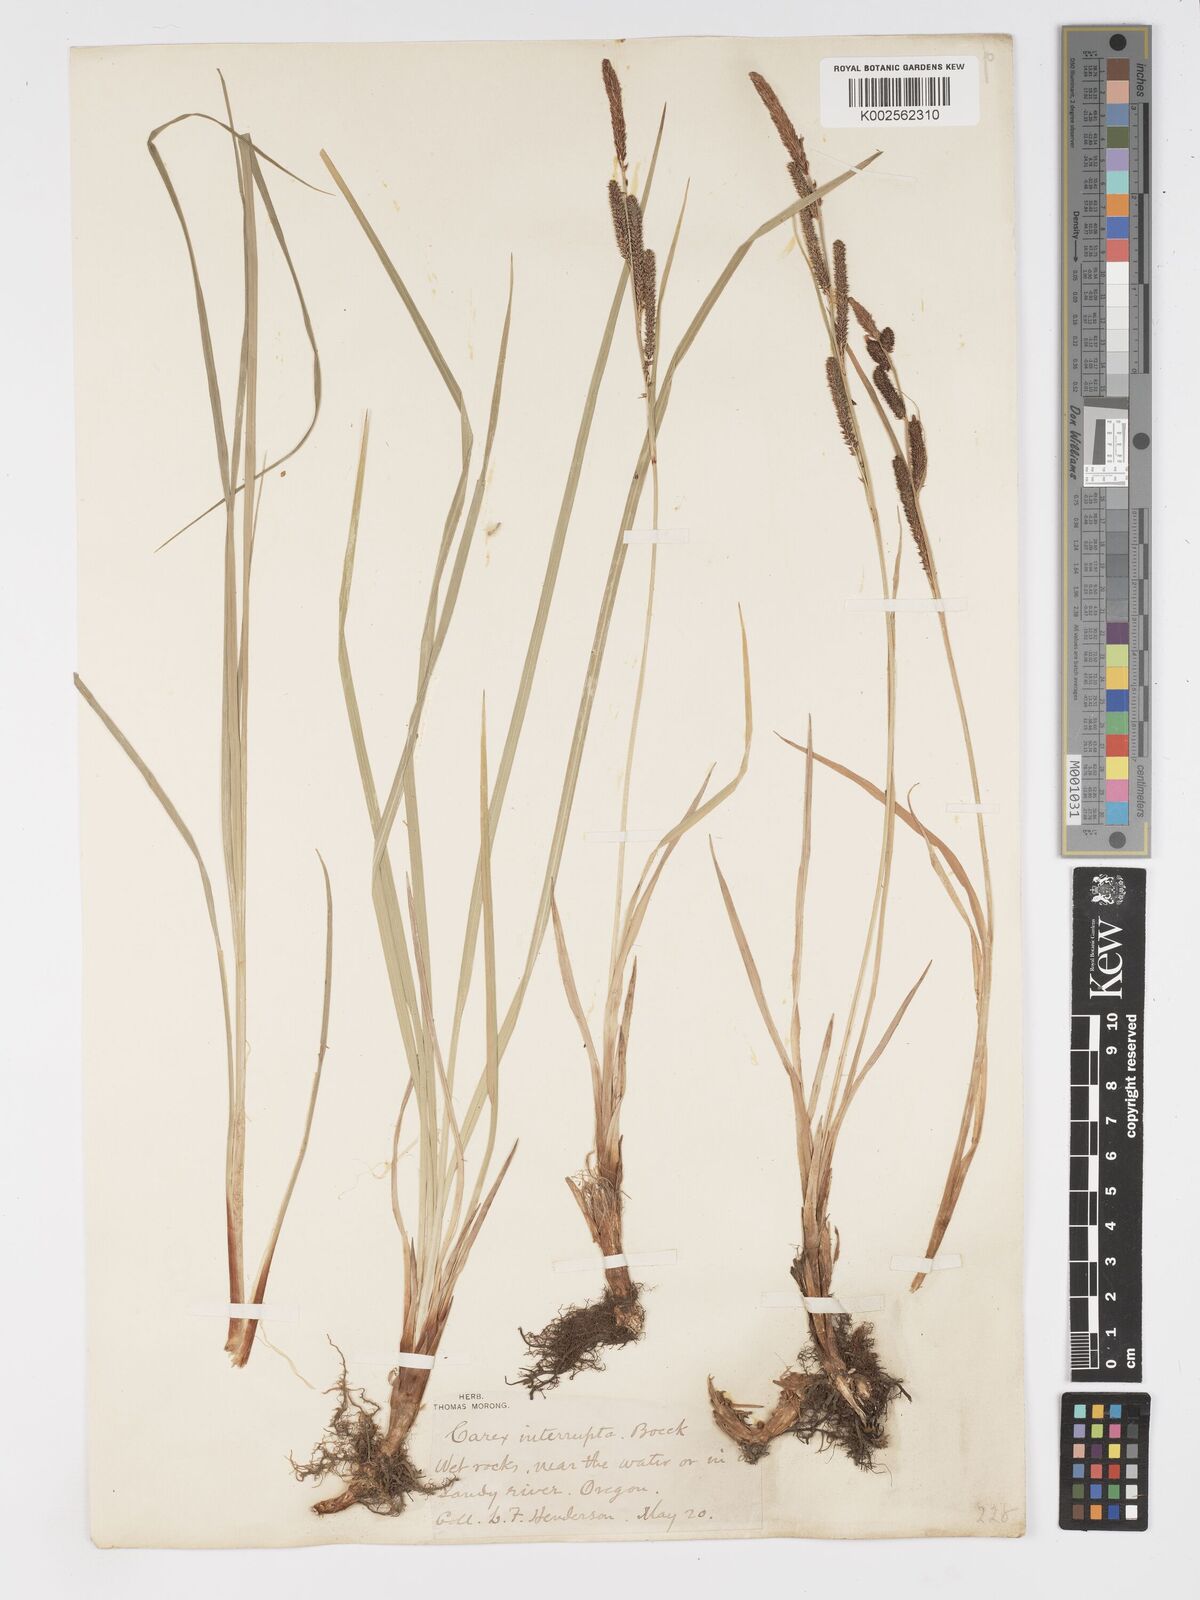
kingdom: Plantae
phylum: Tracheophyta
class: Liliopsida
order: Poales
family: Cyperaceae
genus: Carex
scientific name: Carex interrupta
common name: Green-fruited sedge
